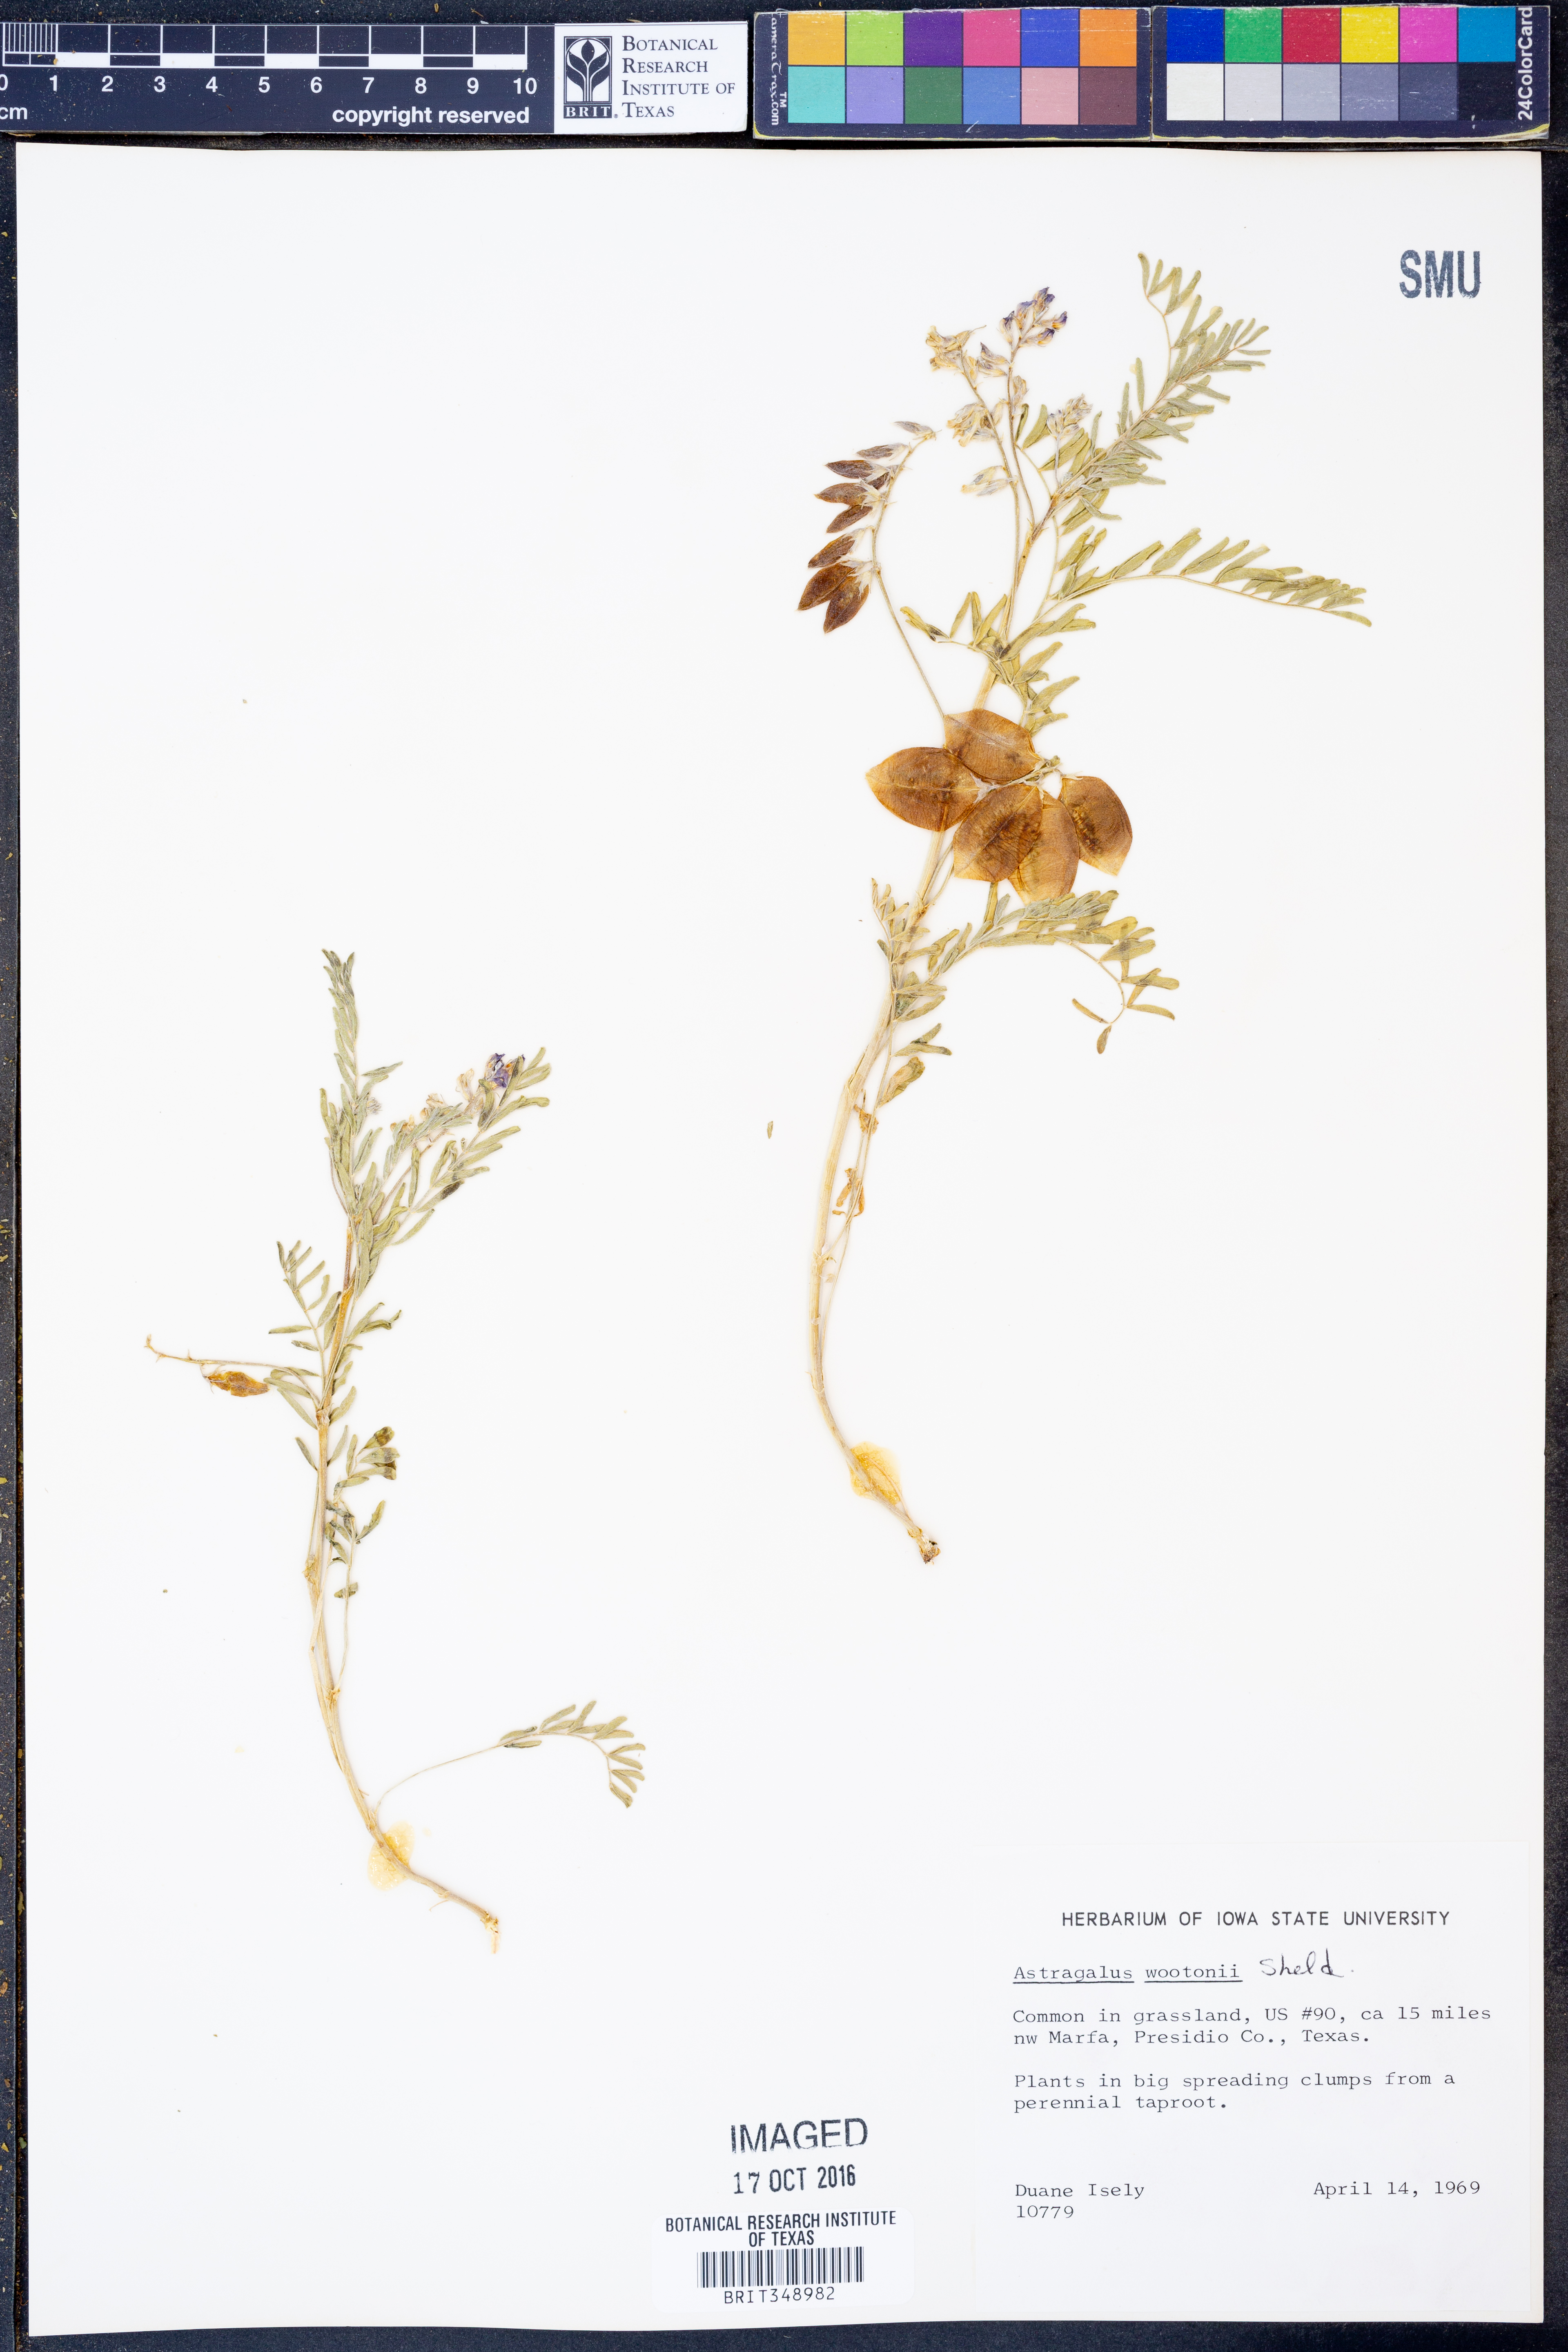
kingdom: Plantae
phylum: Tracheophyta
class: Magnoliopsida
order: Fabales
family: Fabaceae
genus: Astragalus
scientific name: Astragalus wootonii
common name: Wooton's milk-vetch
